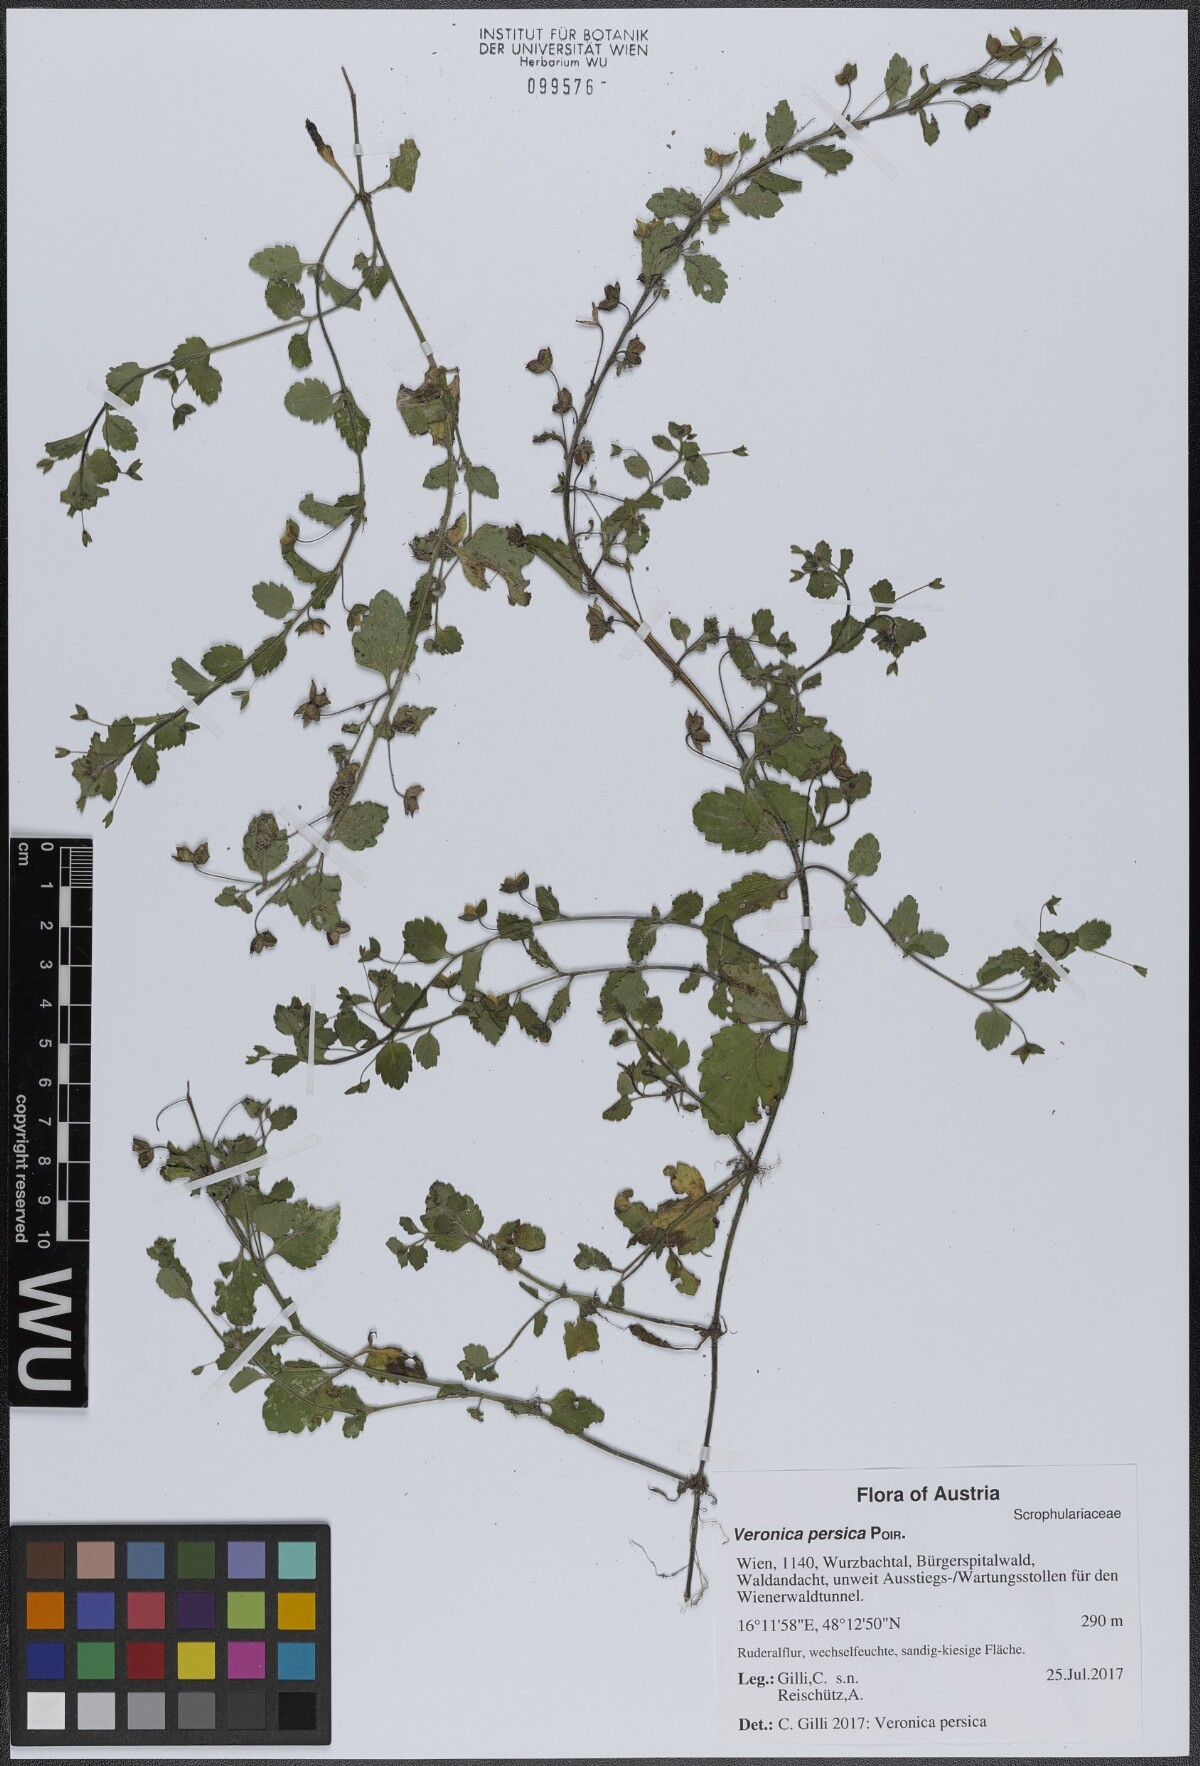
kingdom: Plantae
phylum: Tracheophyta
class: Magnoliopsida
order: Lamiales
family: Plantaginaceae
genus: Veronica
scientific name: Veronica persica
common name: Common field-speedwell
